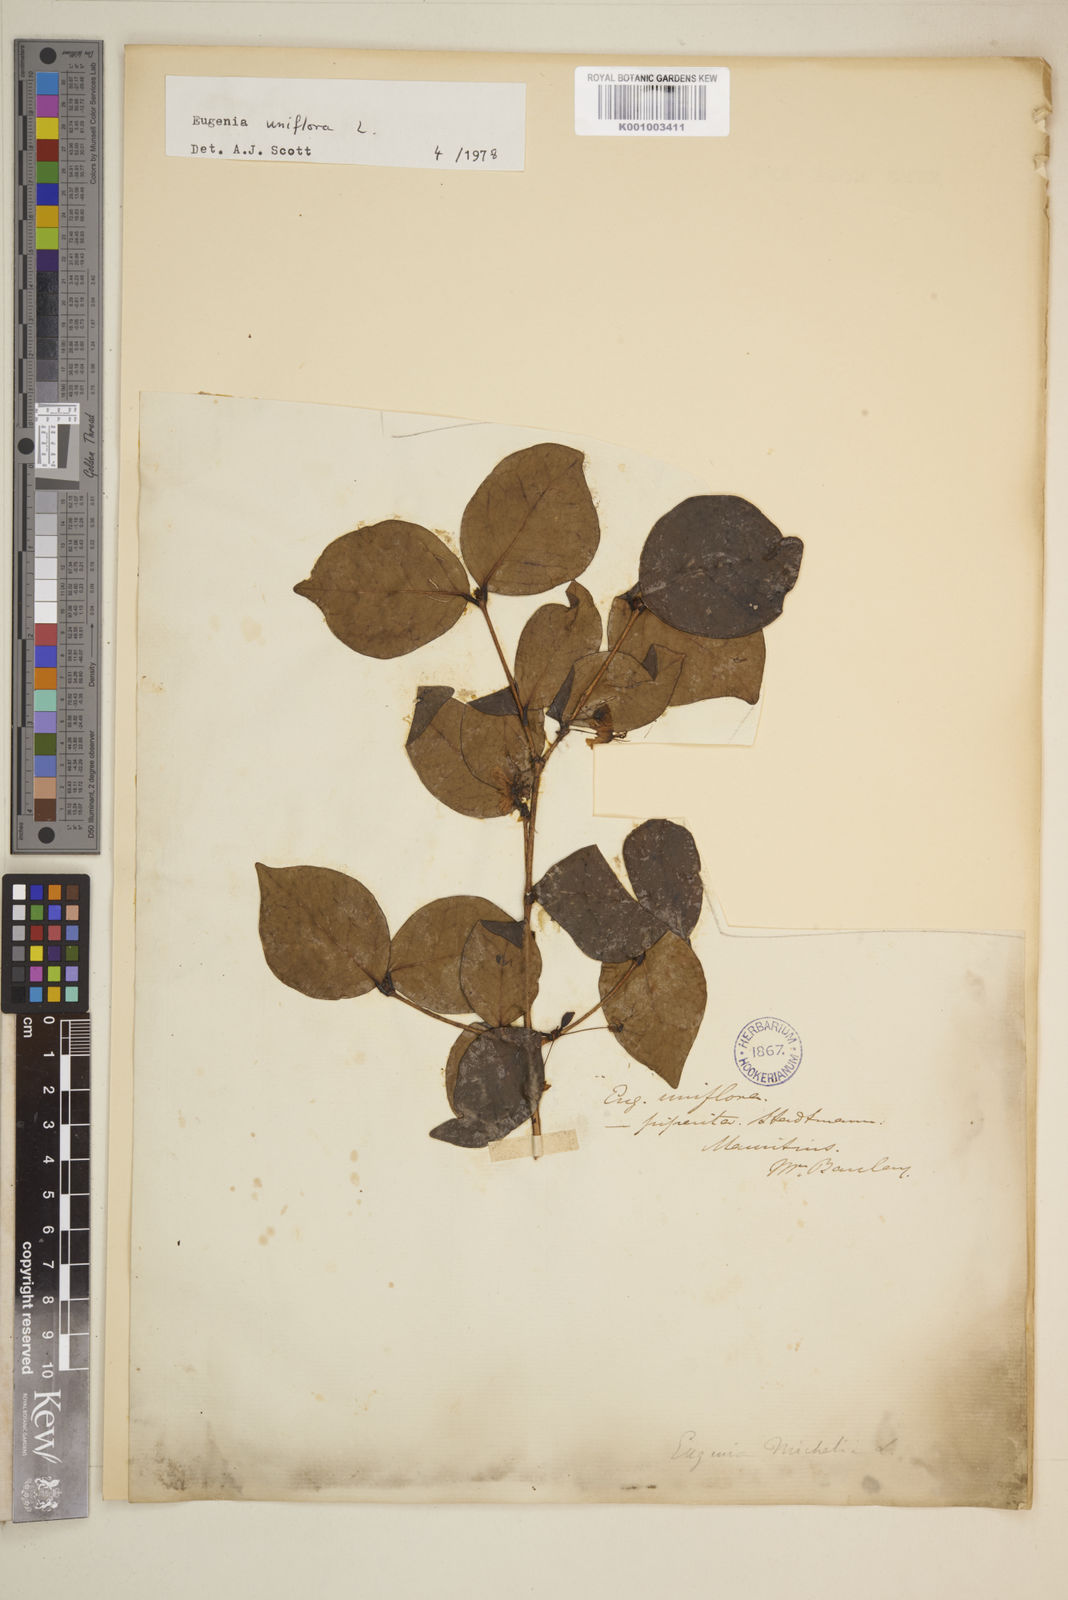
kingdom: Plantae
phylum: Tracheophyta
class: Magnoliopsida
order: Myrtales
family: Myrtaceae
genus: Eugenia
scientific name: Eugenia uniflora
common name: Surinam cherry
